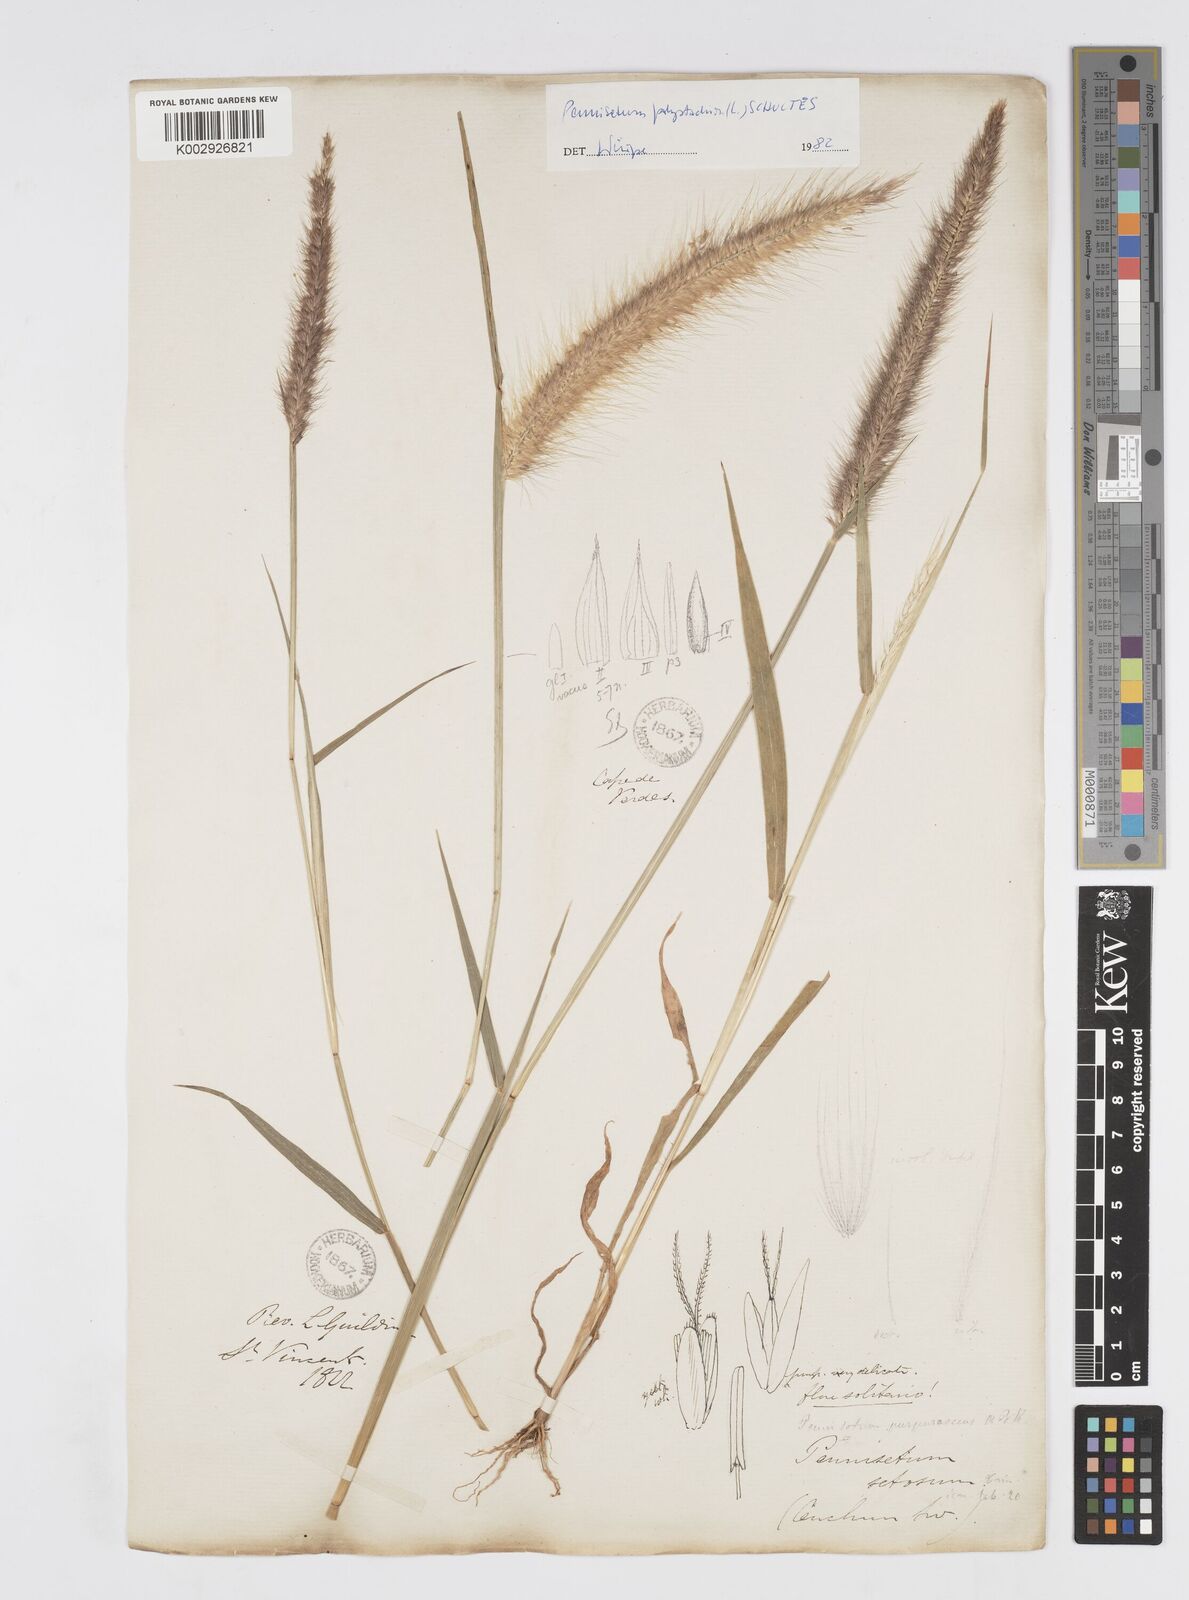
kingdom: Plantae
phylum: Tracheophyta
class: Liliopsida
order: Poales
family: Poaceae
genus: Cenchrus
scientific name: Cenchrus setosus
